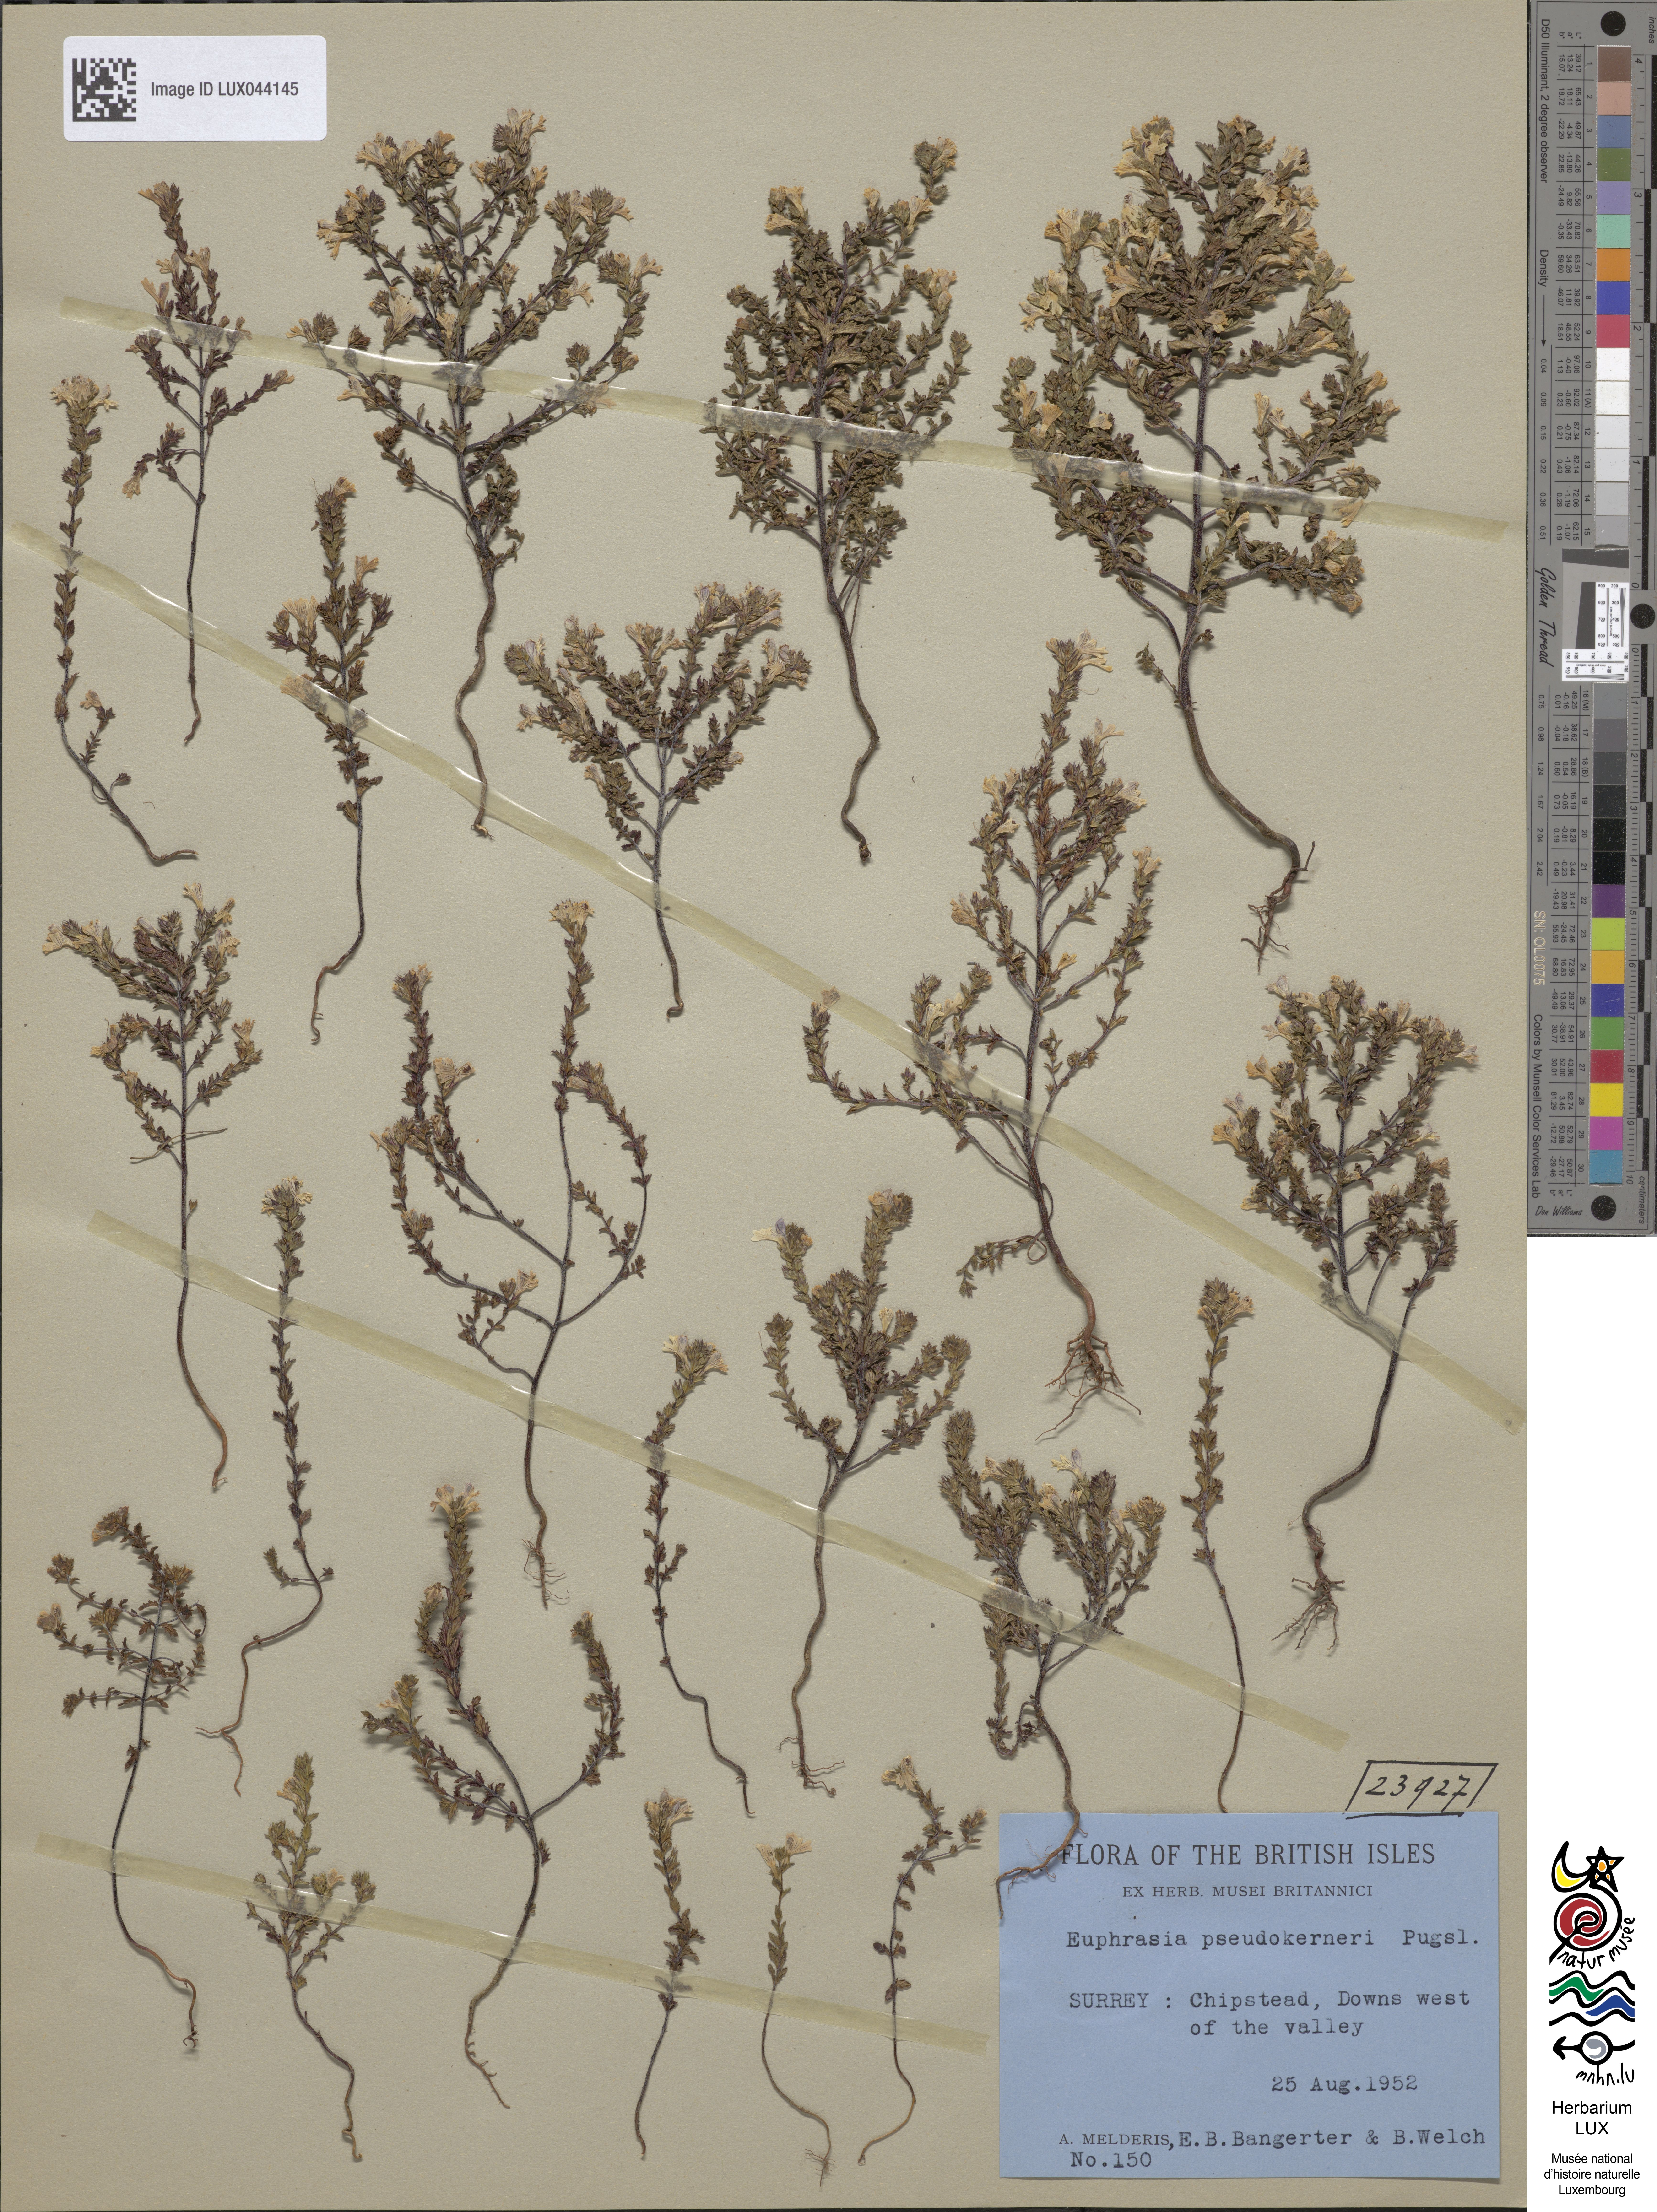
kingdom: Plantae
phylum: Tracheophyta
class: Magnoliopsida
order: Lamiales
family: Orobanchaceae
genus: Euphrasia
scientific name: Euphrasia pseudokerneri
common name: Chalk eyebright
